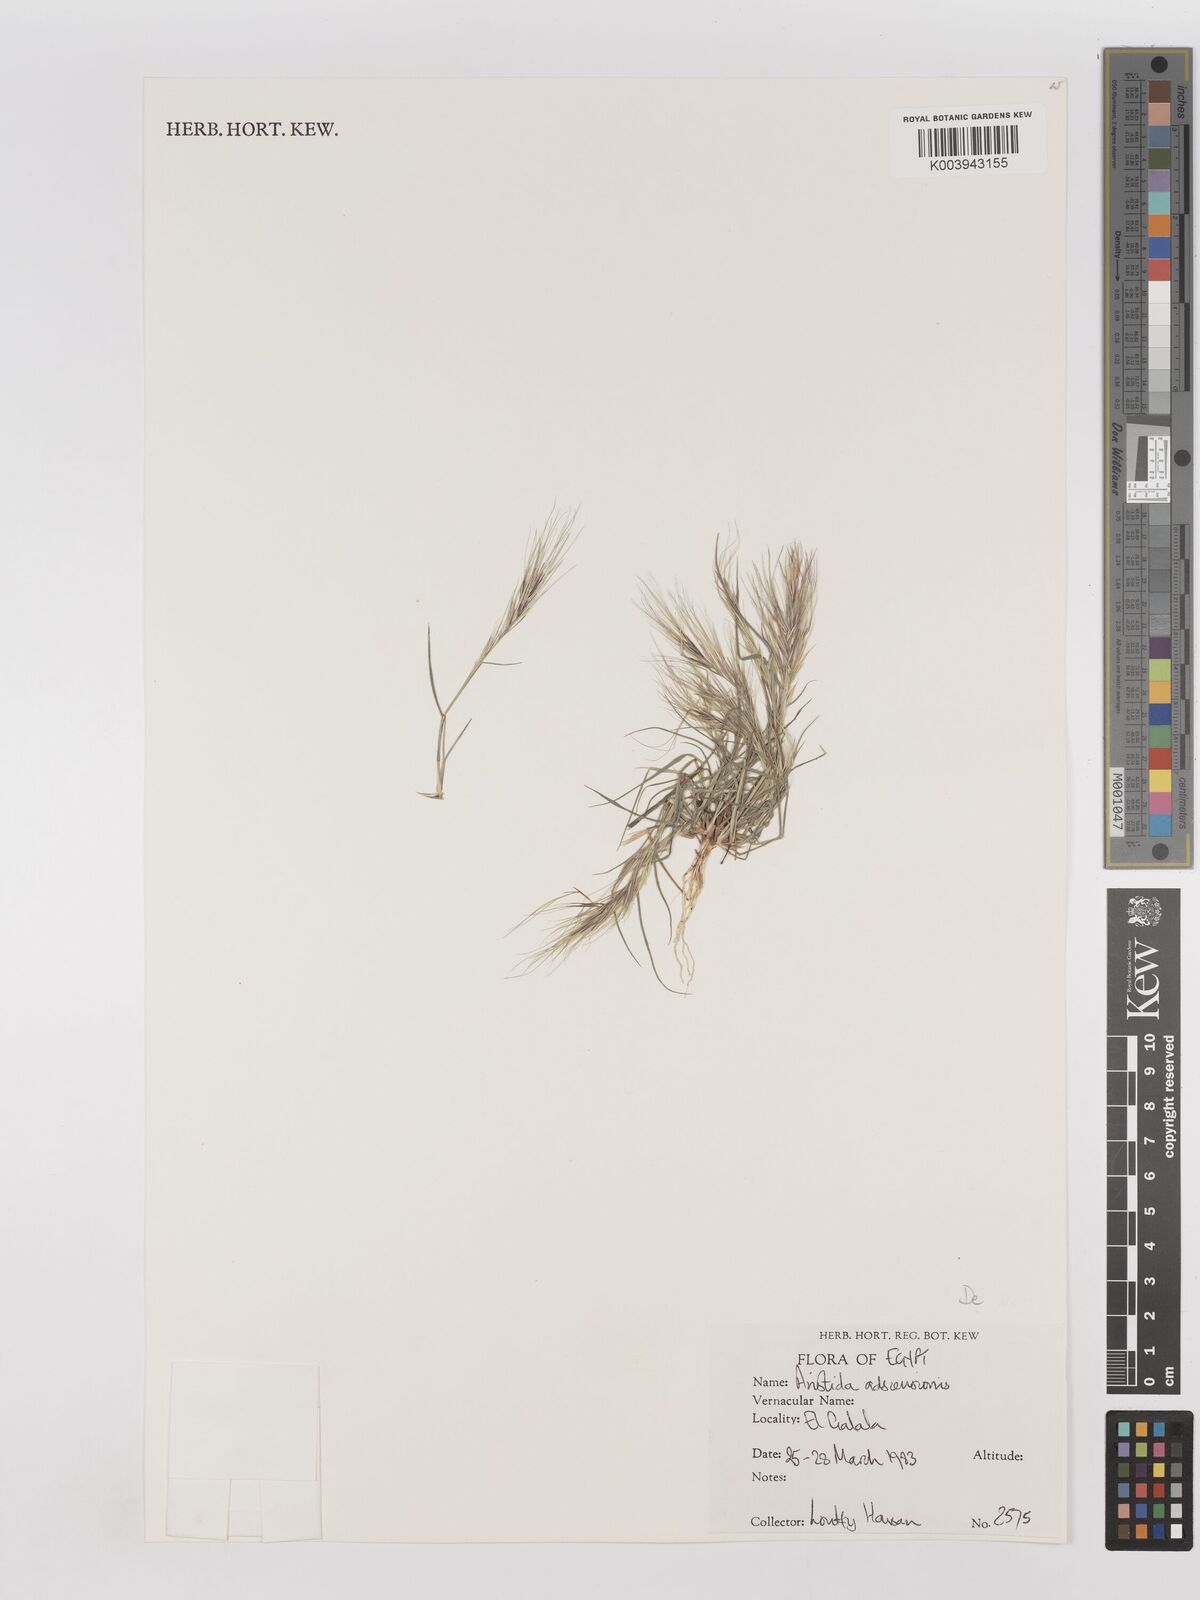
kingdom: Plantae
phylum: Tracheophyta
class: Liliopsida
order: Poales
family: Poaceae
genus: Aristida
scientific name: Aristida adscensionis
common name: Sixweeks threeawn
